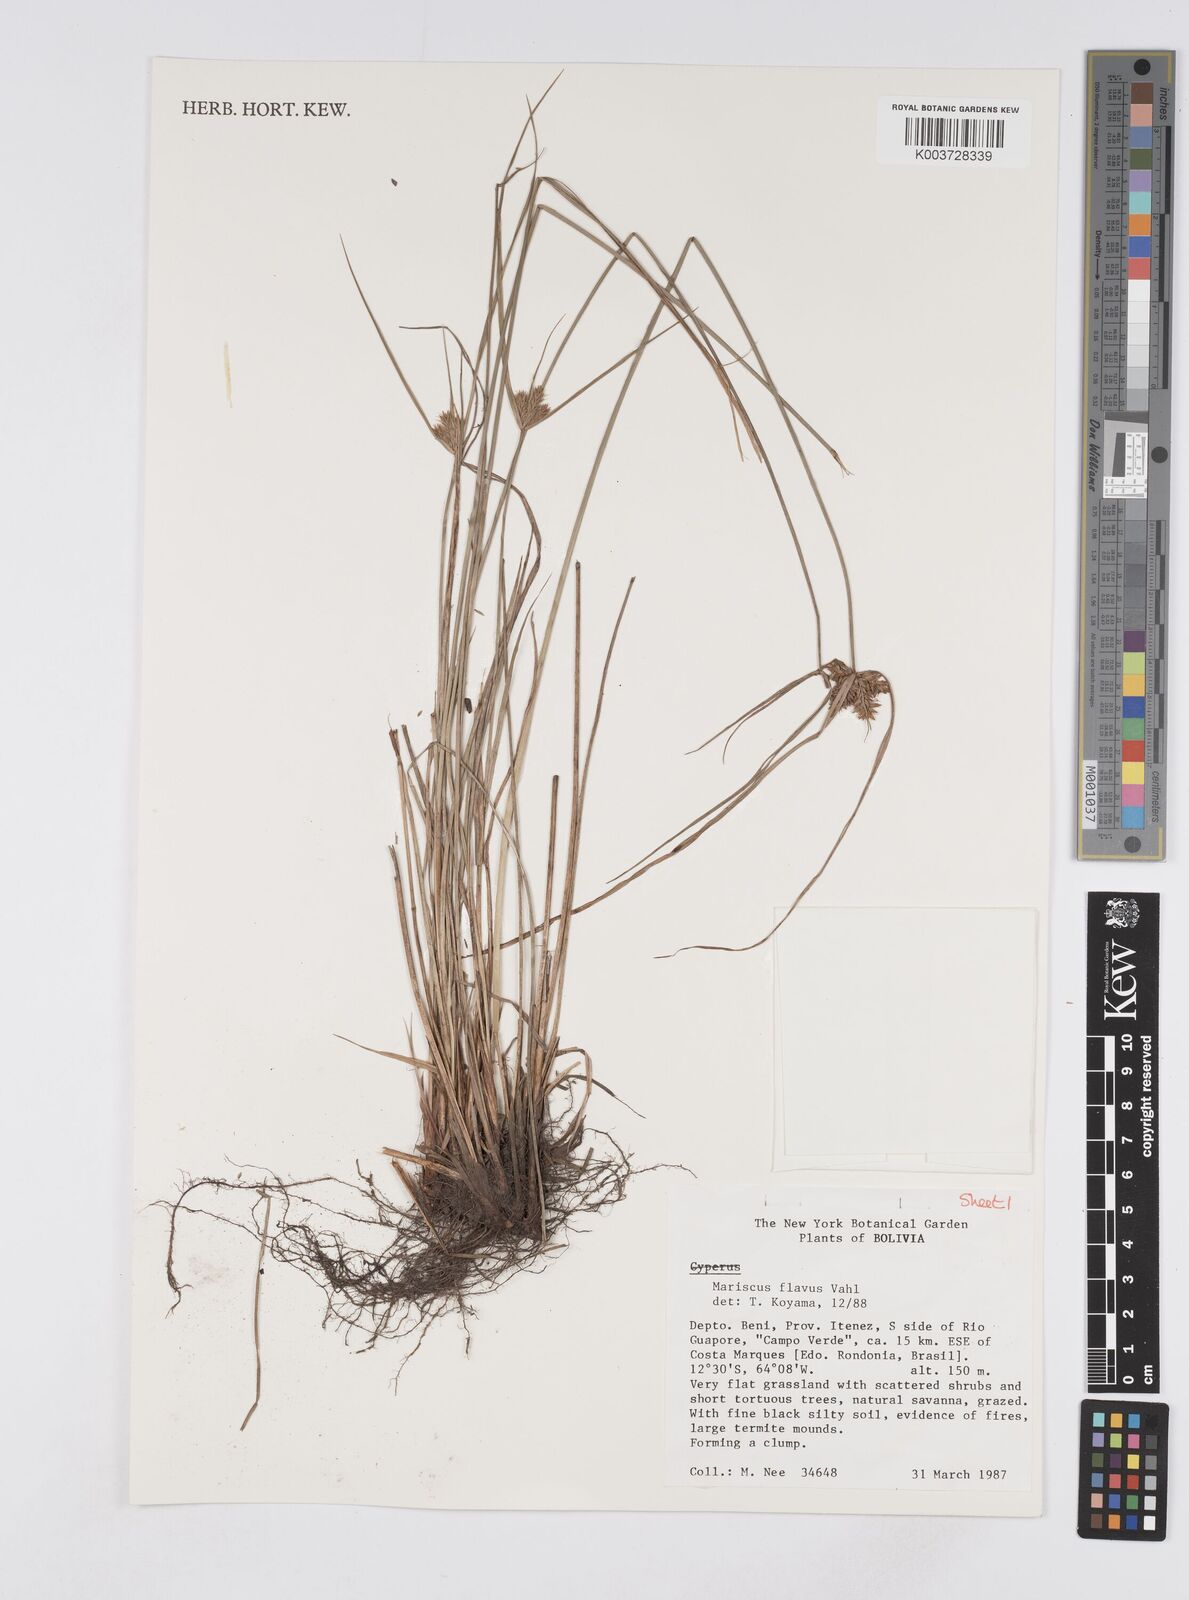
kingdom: Plantae
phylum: Tracheophyta
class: Liliopsida
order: Poales
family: Cyperaceae
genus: Cyperus
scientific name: Cyperus aggregatus
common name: Inflatedscale flatsedge
